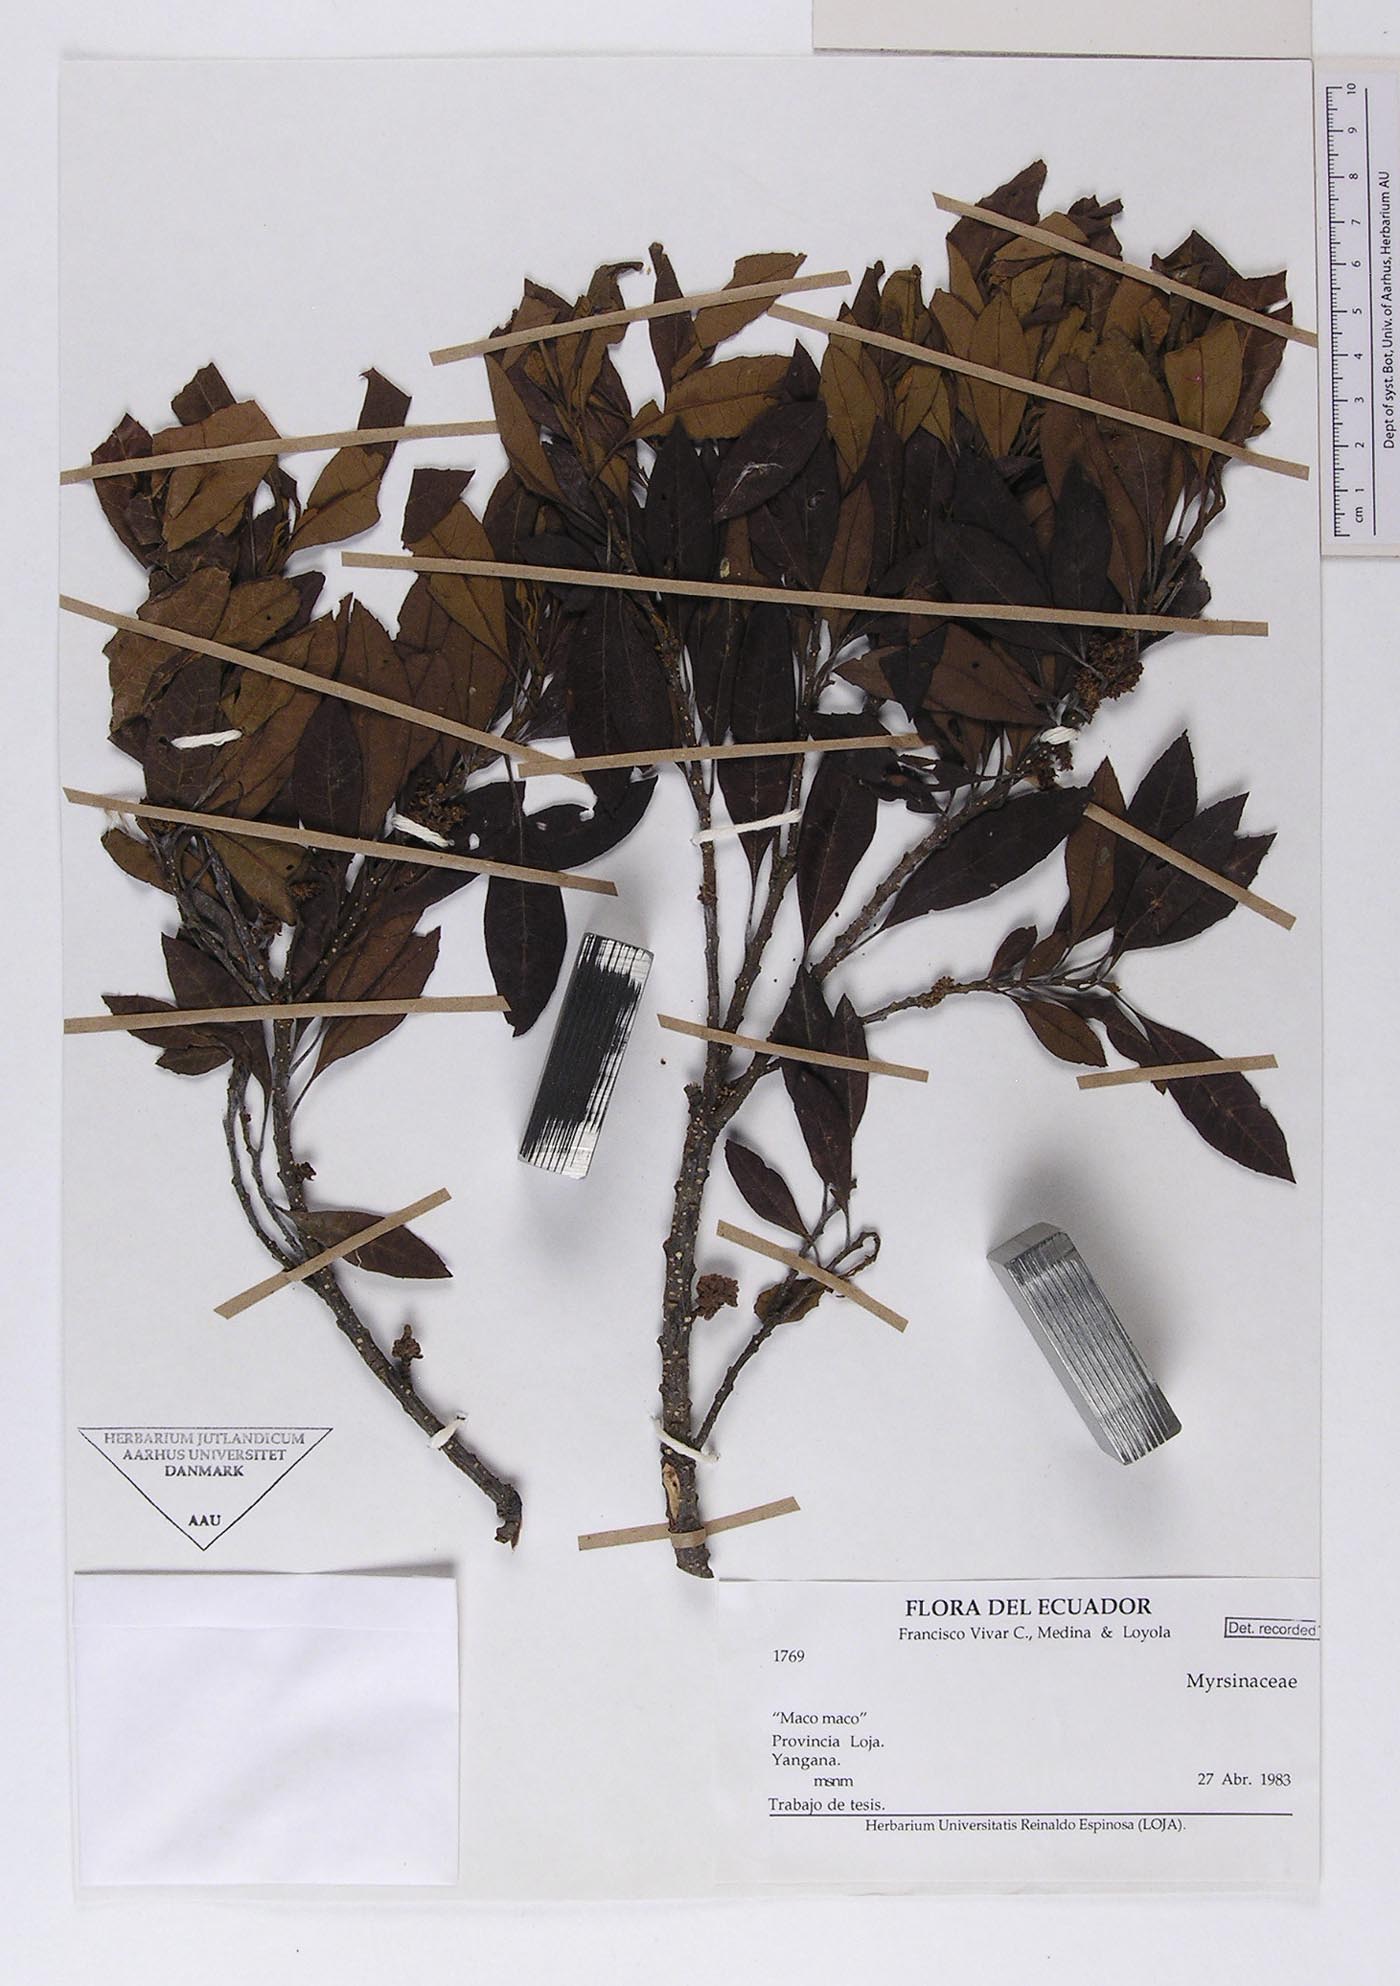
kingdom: Plantae
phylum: Tracheophyta
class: Magnoliopsida
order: Ericales
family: Primulaceae
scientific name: Primulaceae
